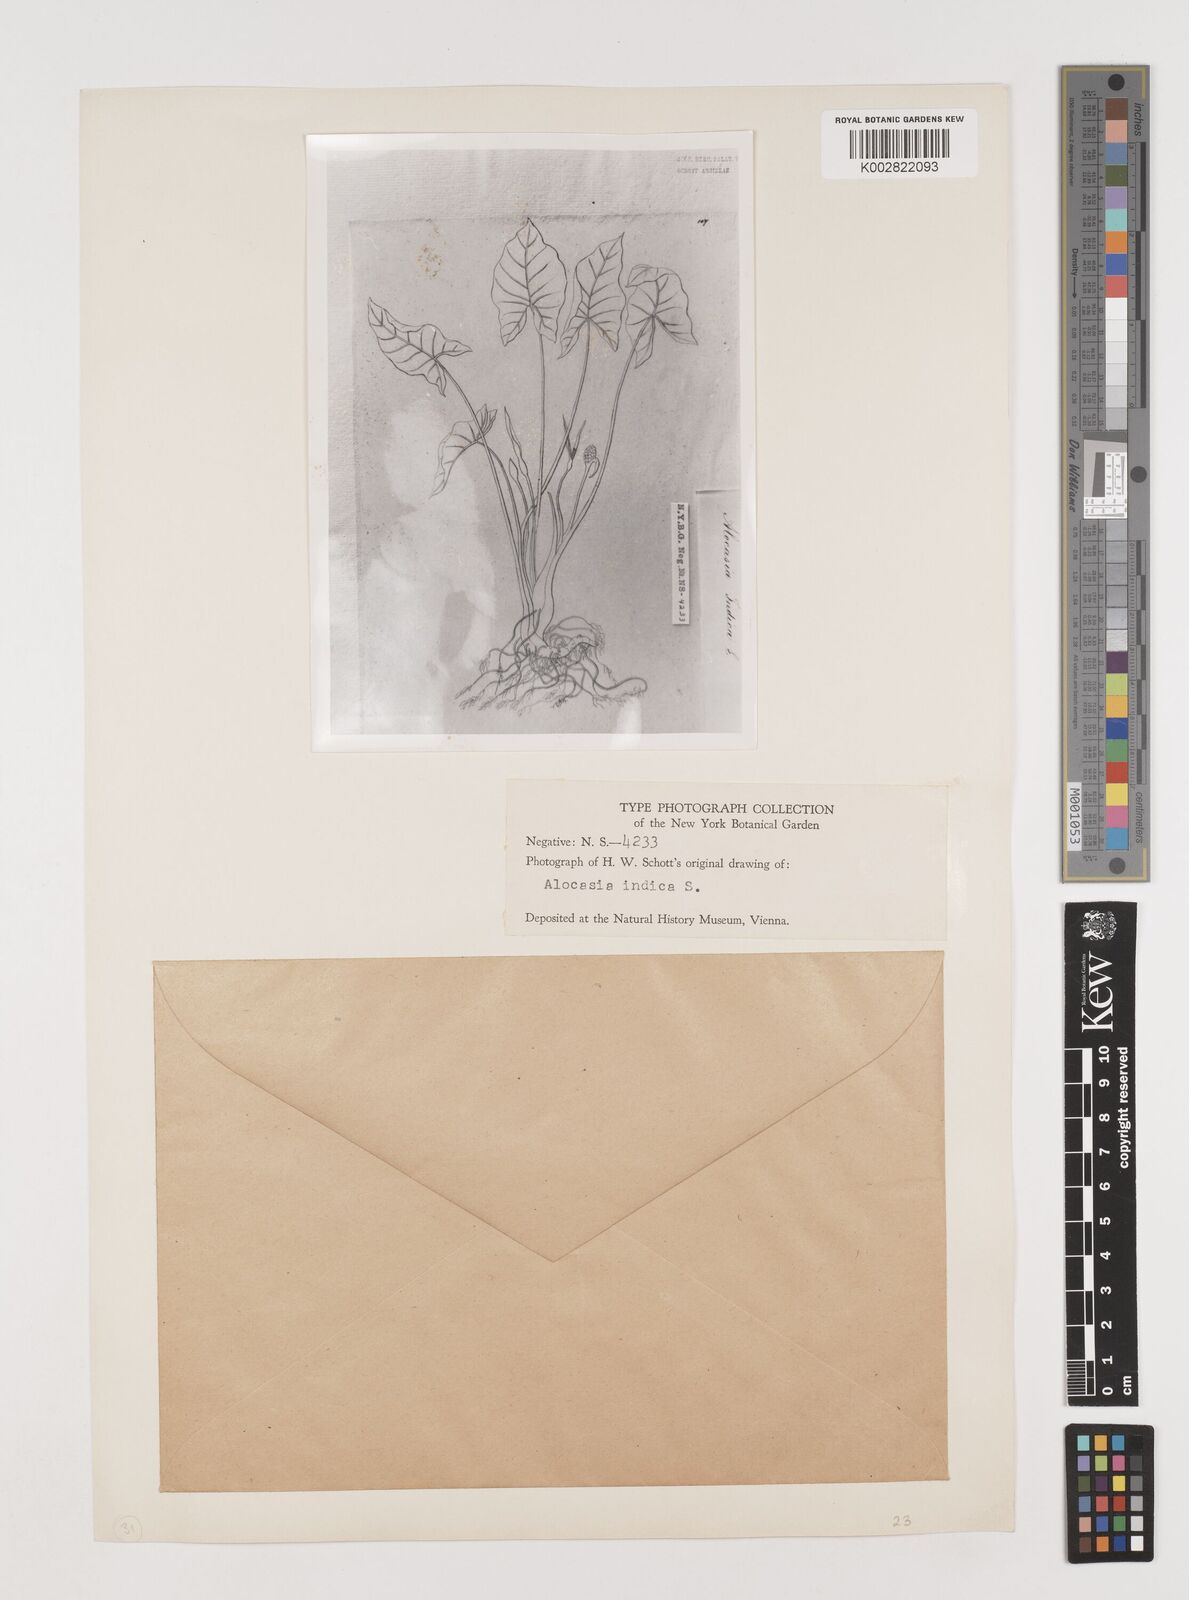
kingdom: Plantae
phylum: Tracheophyta
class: Liliopsida
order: Alismatales
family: Araceae
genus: Alocasia
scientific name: Alocasia macrorrhizos
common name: Giant taro
